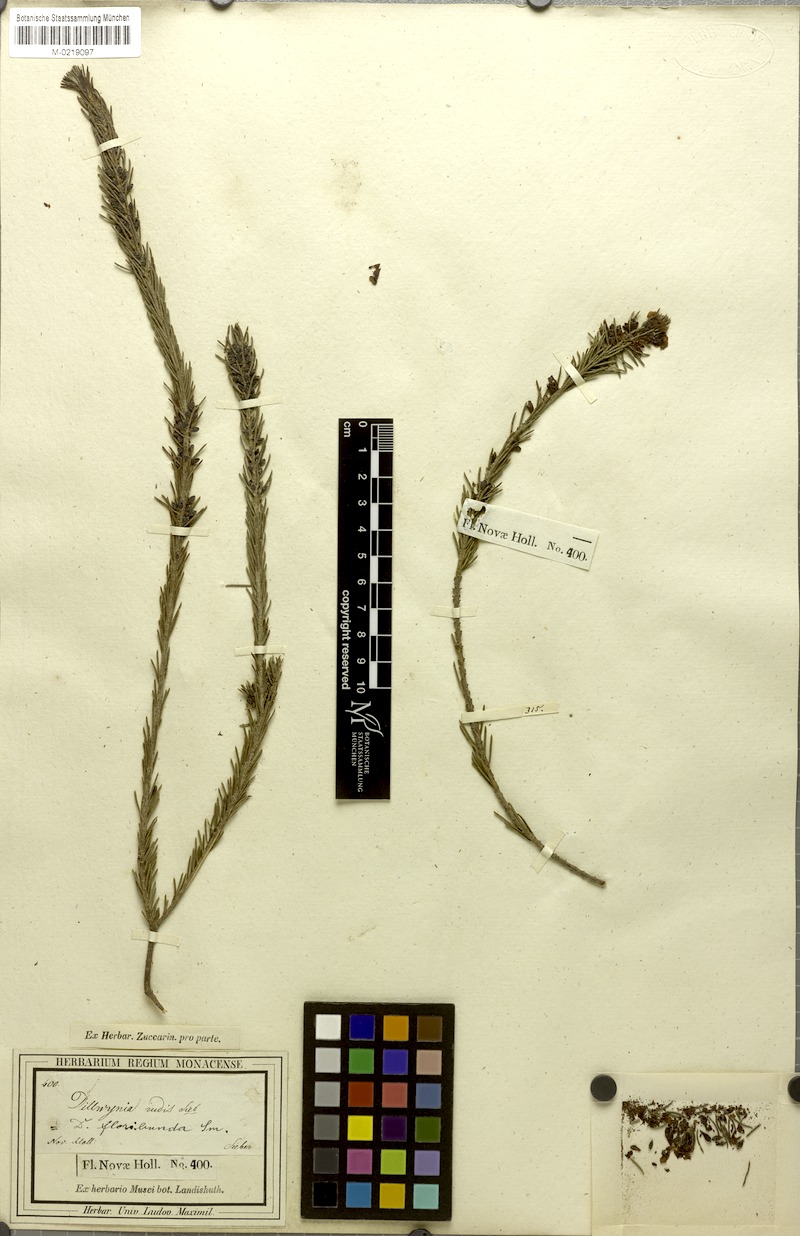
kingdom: Plantae
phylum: Tracheophyta
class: Magnoliopsida
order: Fabales
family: Fabaceae
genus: Dillwynia
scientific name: Dillwynia sericea
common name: Showy parrot-pea
